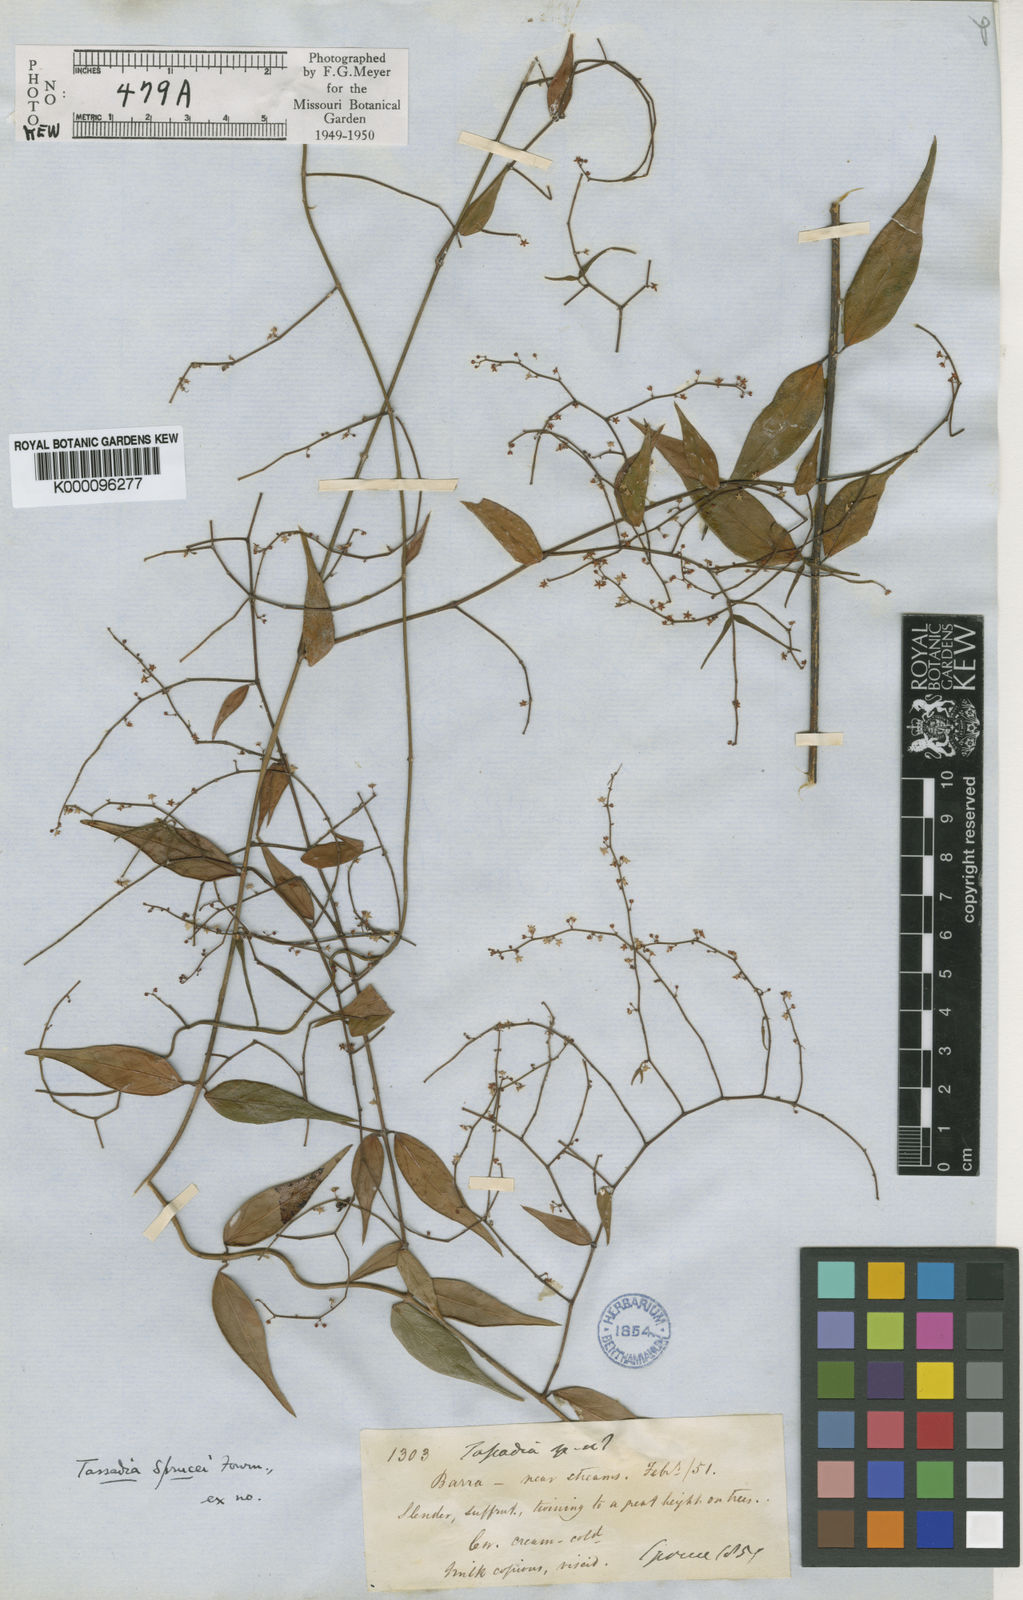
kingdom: Plantae
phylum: Tracheophyta
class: Magnoliopsida
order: Gentianales
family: Apocynaceae
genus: Tassadia
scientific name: Tassadia propinqua
